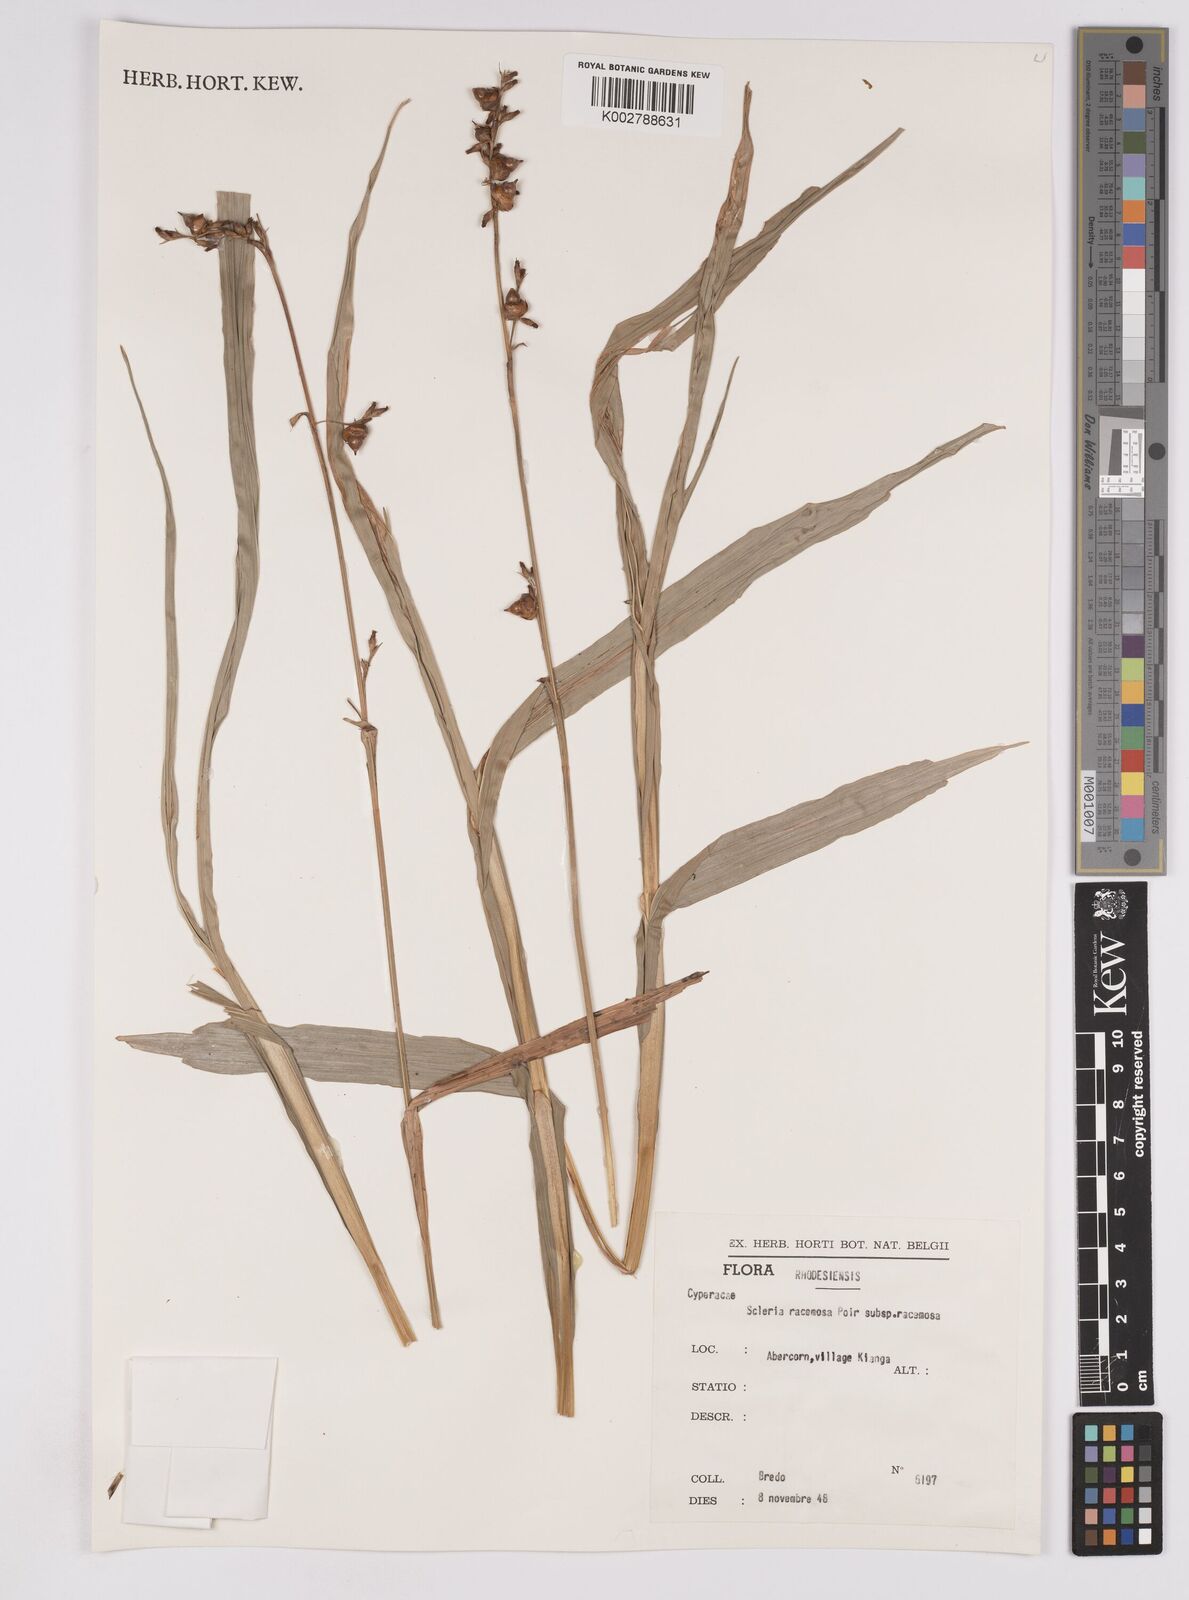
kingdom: Plantae
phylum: Tracheophyta
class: Liliopsida
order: Poales
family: Cyperaceae
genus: Scleria
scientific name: Scleria racemosa
